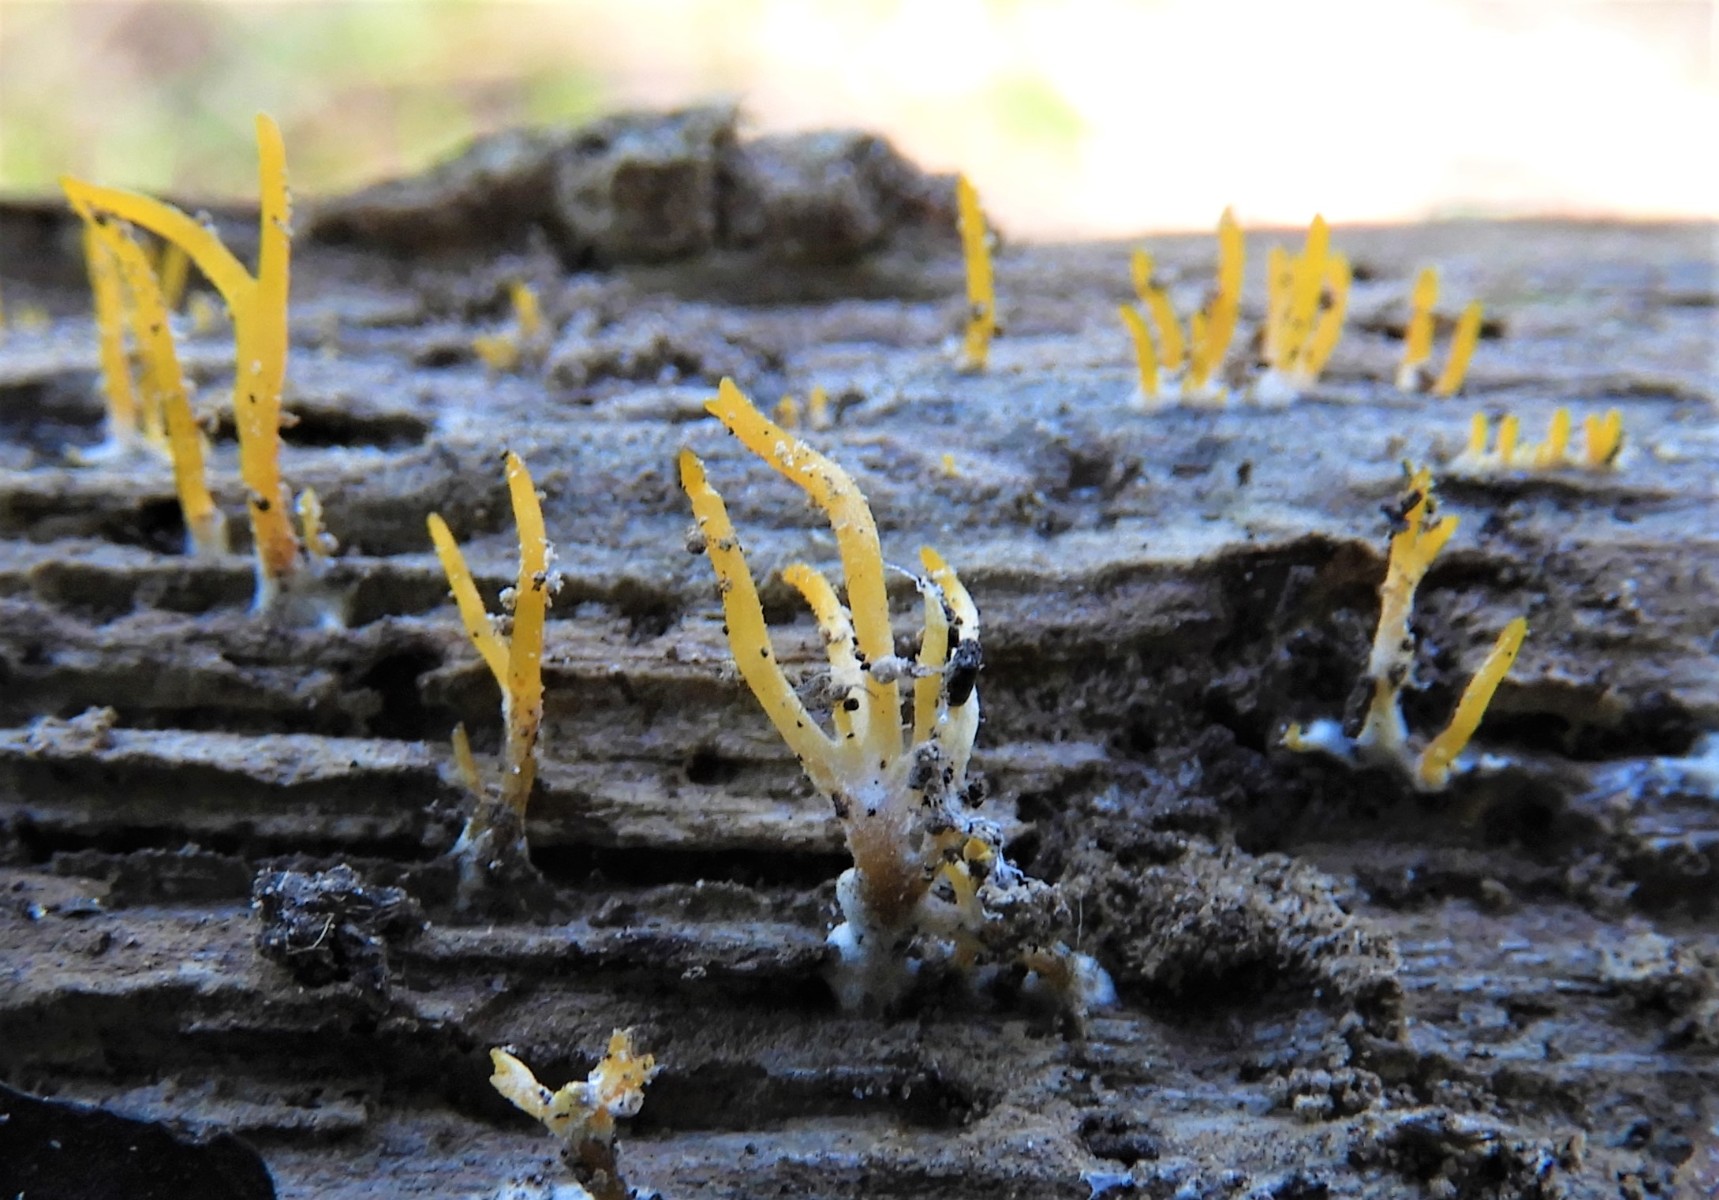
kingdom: Fungi
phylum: Basidiomycota
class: Dacrymycetes
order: Dacrymycetales
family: Dacrymycetaceae
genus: Calocera
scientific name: Calocera cornea
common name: liden guldgaffel
